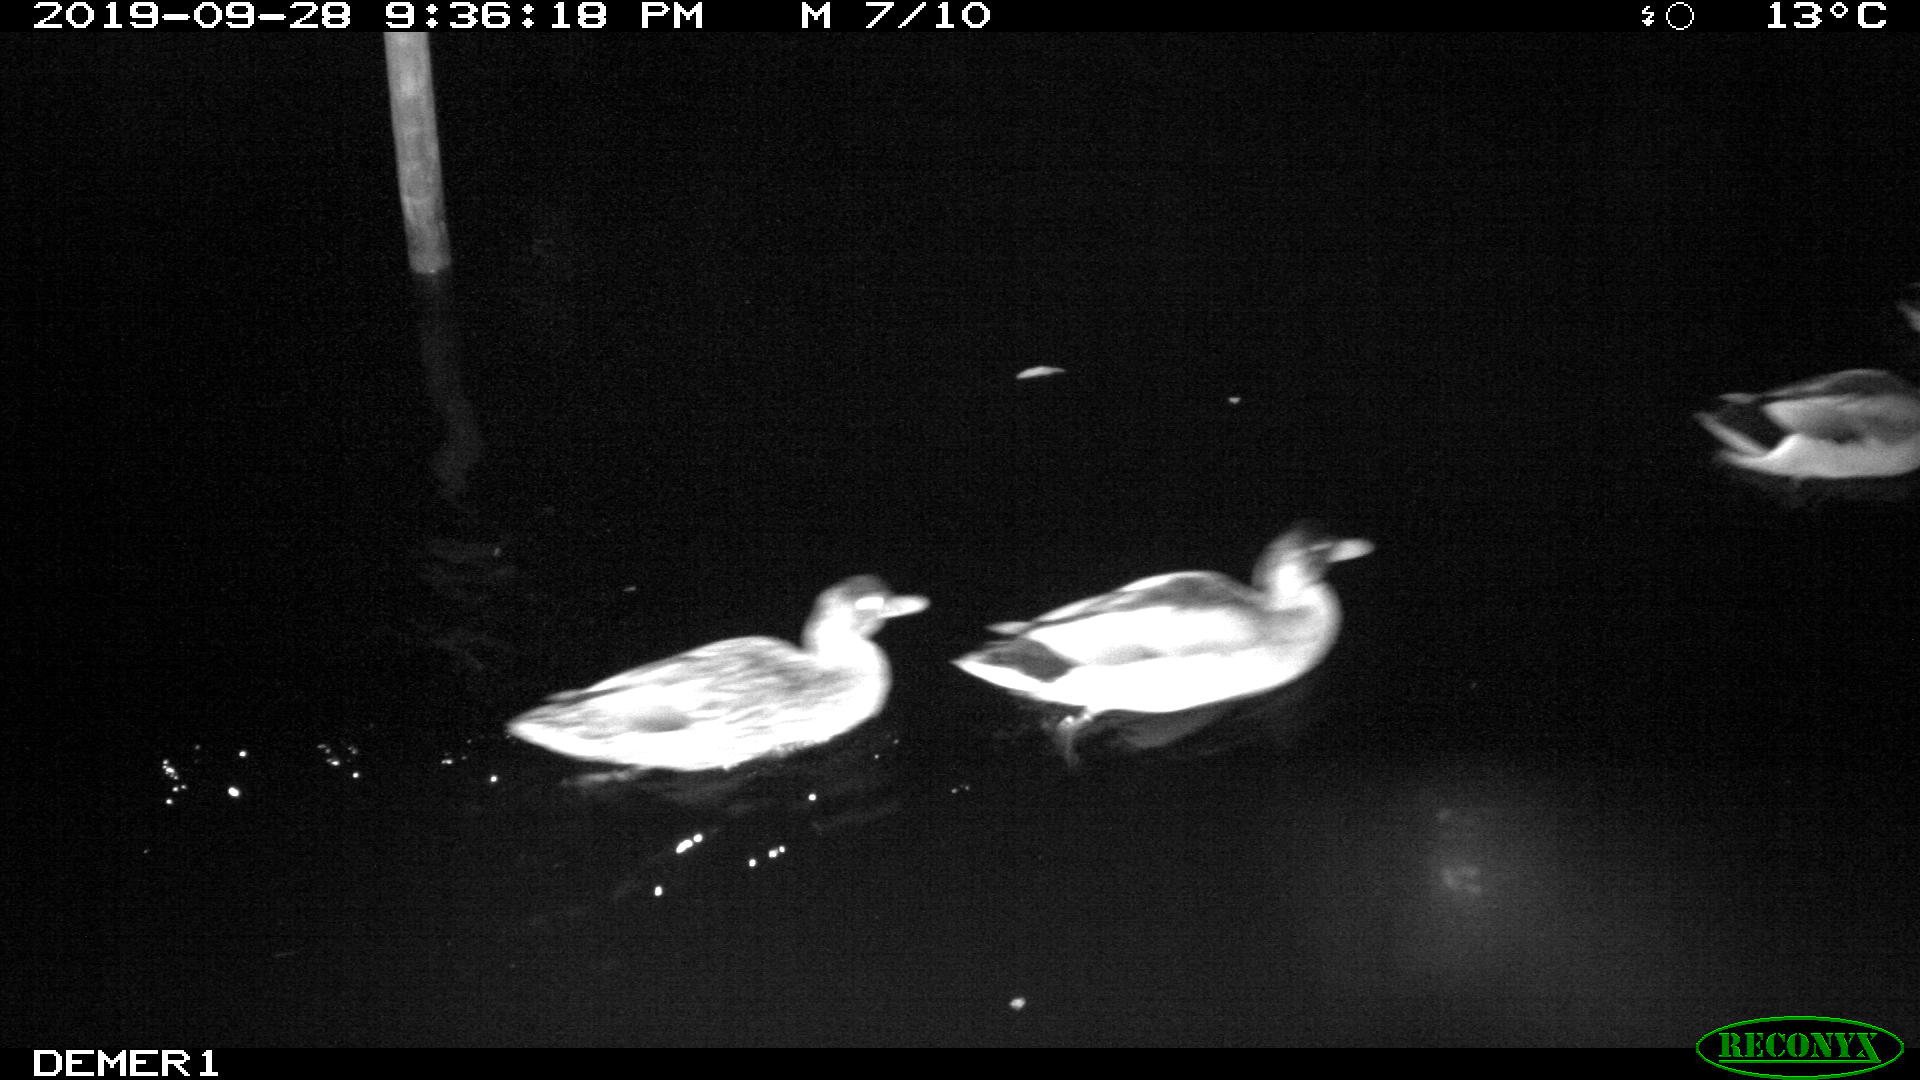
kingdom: Animalia
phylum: Chordata
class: Aves
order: Anseriformes
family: Anatidae
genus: Anas
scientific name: Anas platyrhynchos
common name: Mallard
